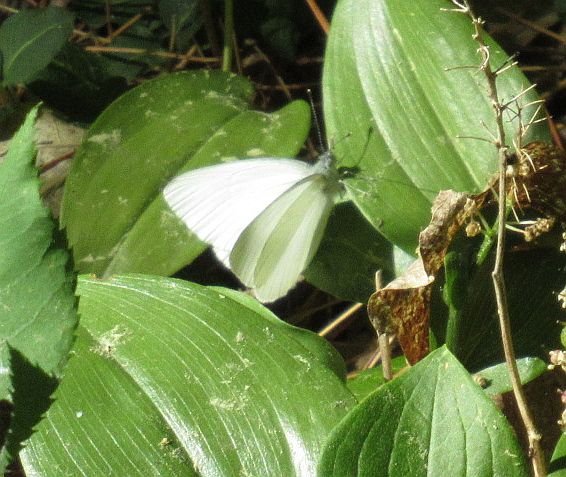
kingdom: Animalia
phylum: Arthropoda
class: Insecta
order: Lepidoptera
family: Pieridae
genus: Pieris
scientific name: Pieris oleracea
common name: Mustard White
